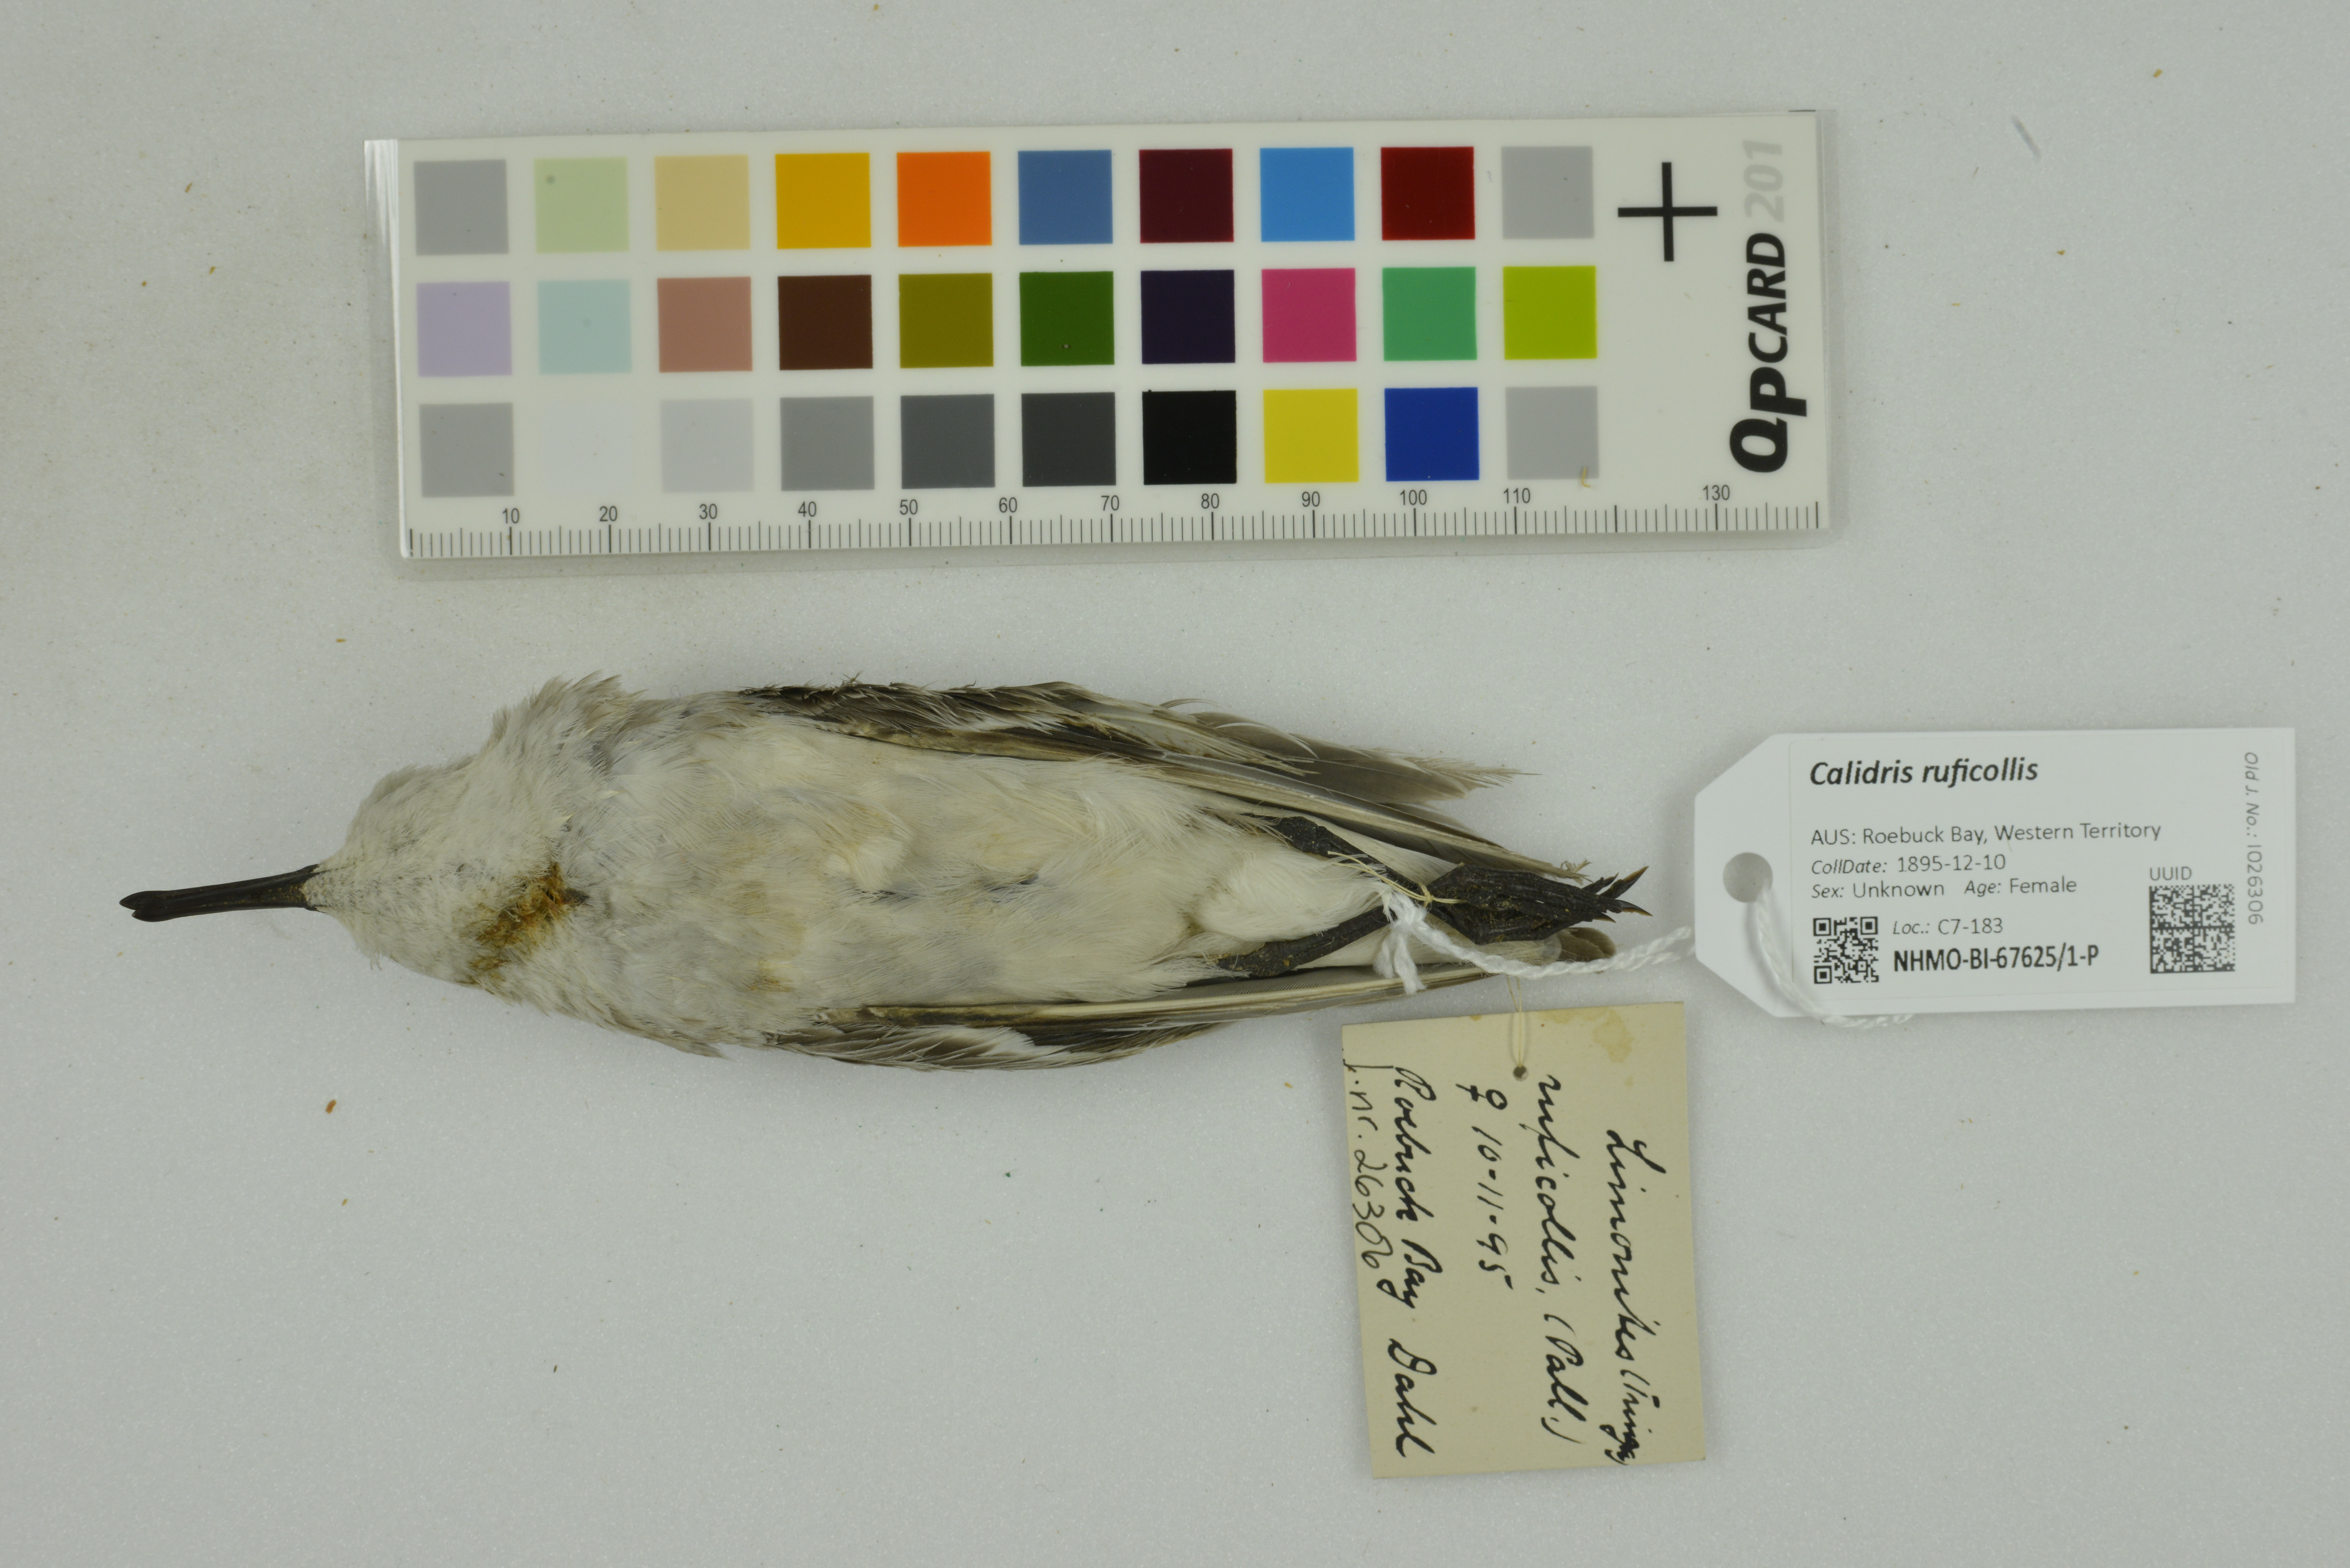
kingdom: Animalia
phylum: Chordata
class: Aves
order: Charadriiformes
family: Scolopacidae
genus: Calidris
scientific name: Calidris ruficollis
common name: Red-necked stint
